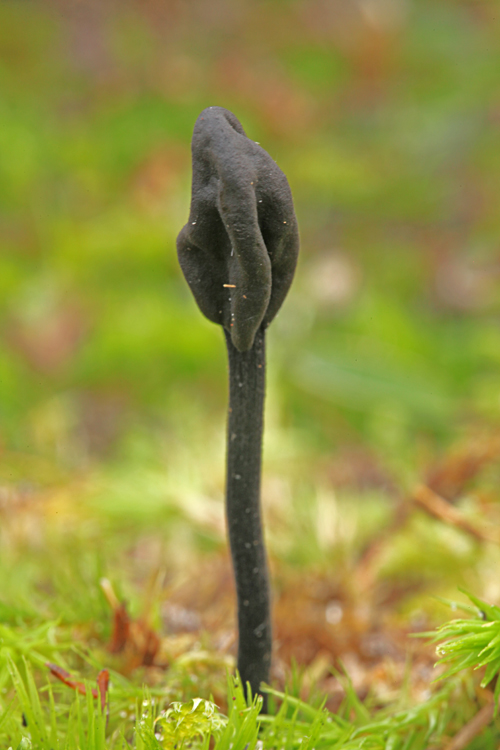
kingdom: Fungi
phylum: Ascomycota
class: Geoglossomycetes
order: Geoglossales
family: Geoglossaceae
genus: Trichoglossum
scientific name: Trichoglossum hirsutum
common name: håret jordtunge
